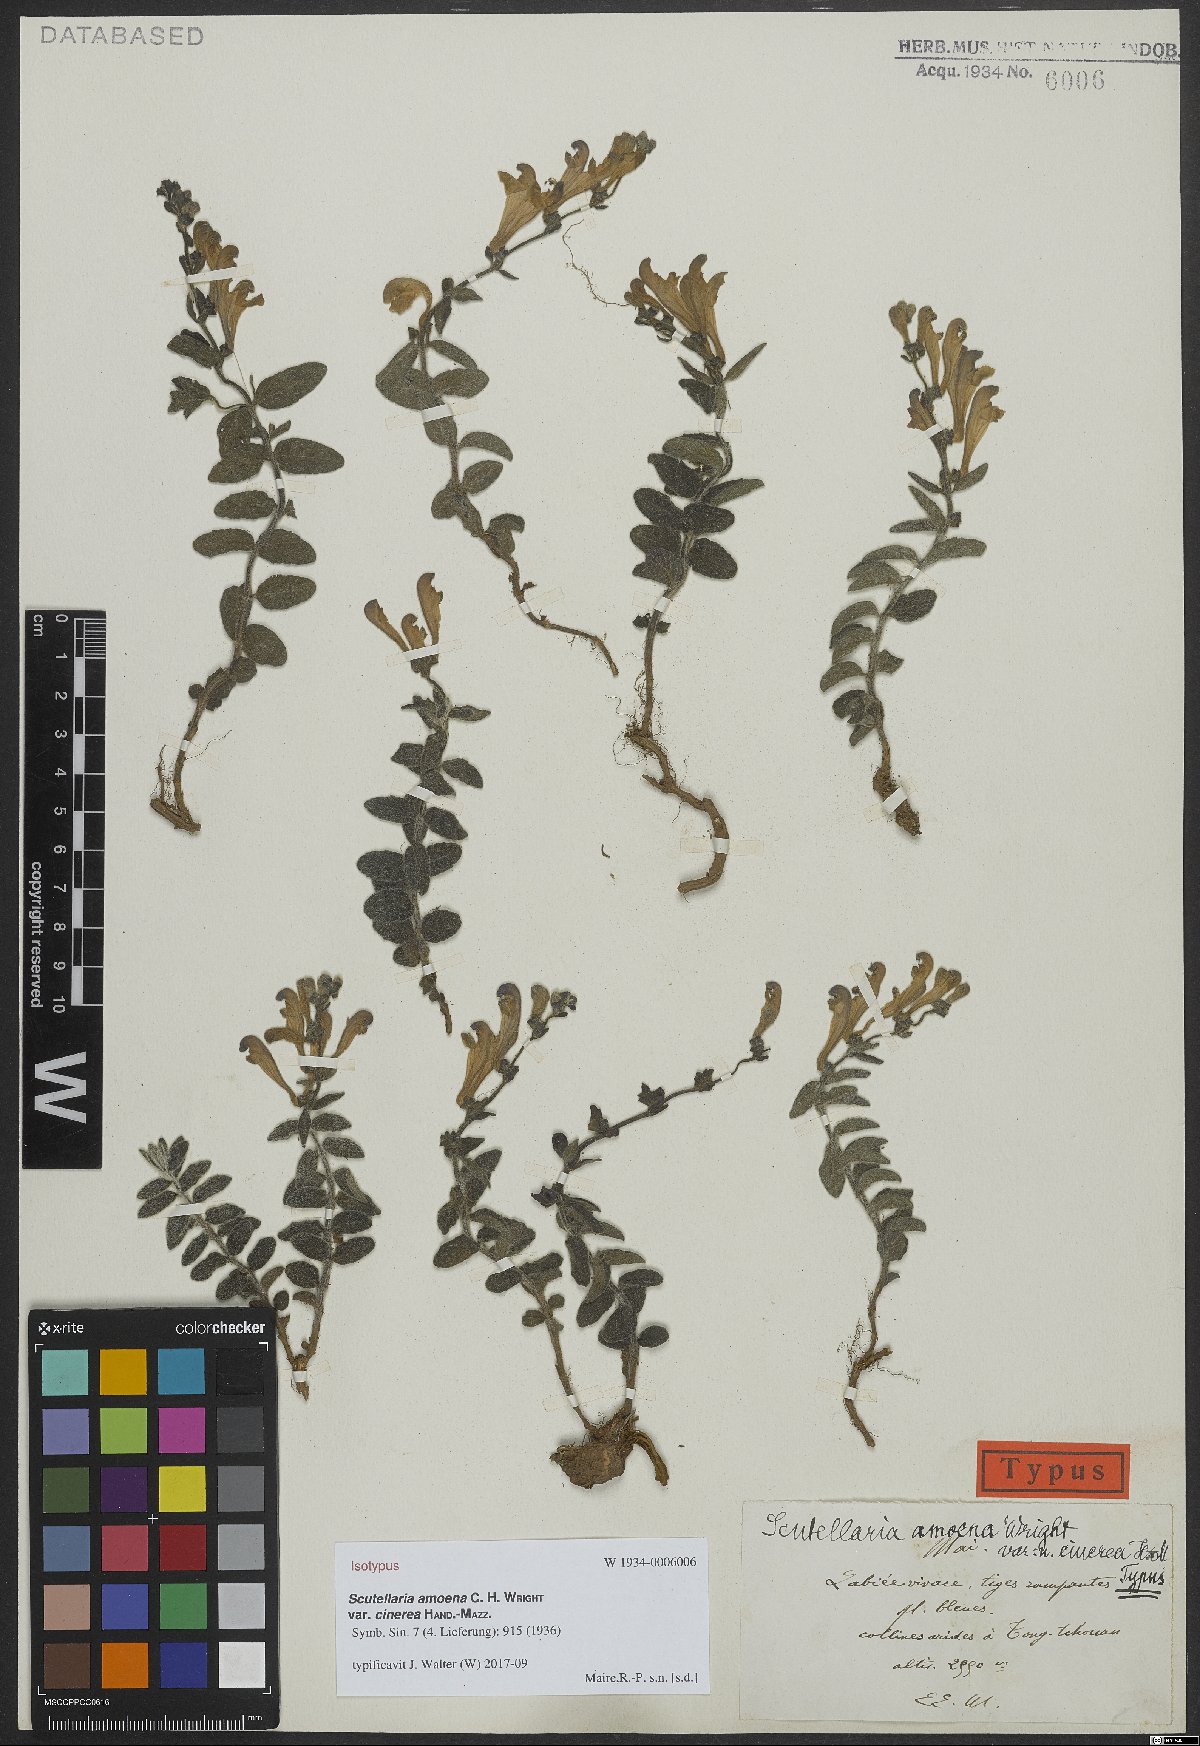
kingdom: Plantae
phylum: Tracheophyta
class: Magnoliopsida
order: Lamiales
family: Lamiaceae
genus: Scutellaria
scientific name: Scutellaria amoena
